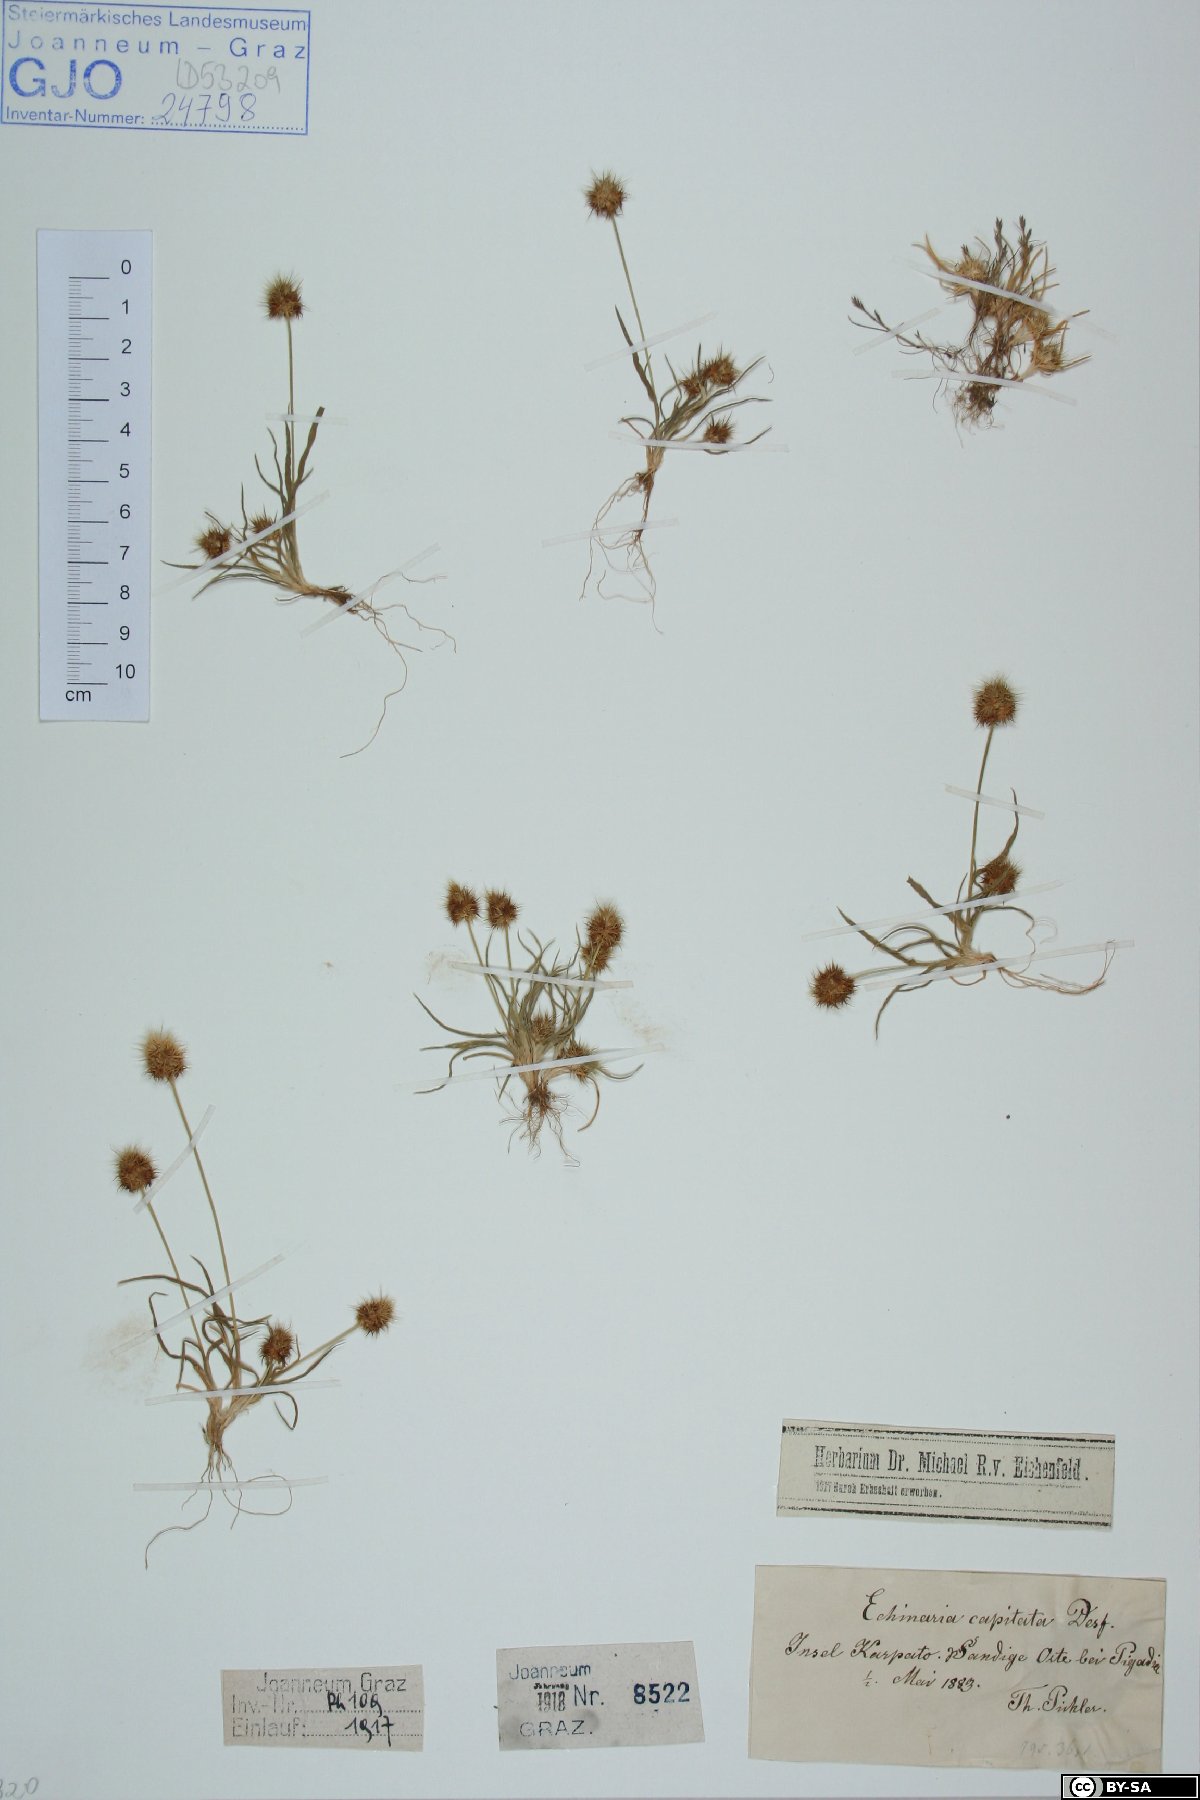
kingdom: Plantae
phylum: Tracheophyta
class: Liliopsida
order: Poales
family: Poaceae
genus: Echinaria
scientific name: Echinaria capitata
